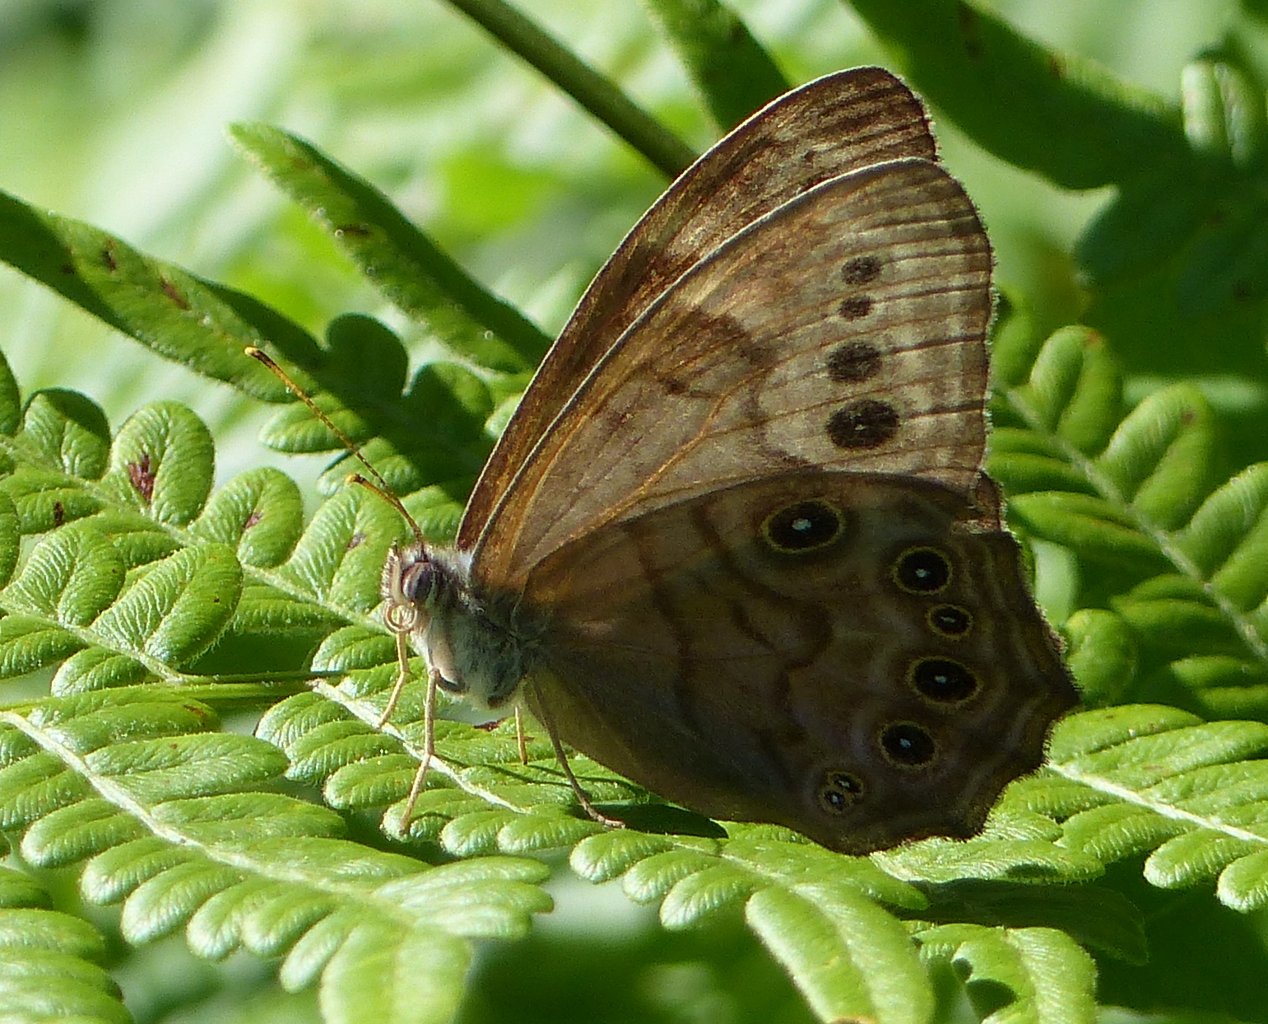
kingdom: Animalia
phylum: Arthropoda
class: Insecta
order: Lepidoptera
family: Nymphalidae
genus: Lethe
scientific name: Lethe anthedon
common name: Northern Pearly-Eye
